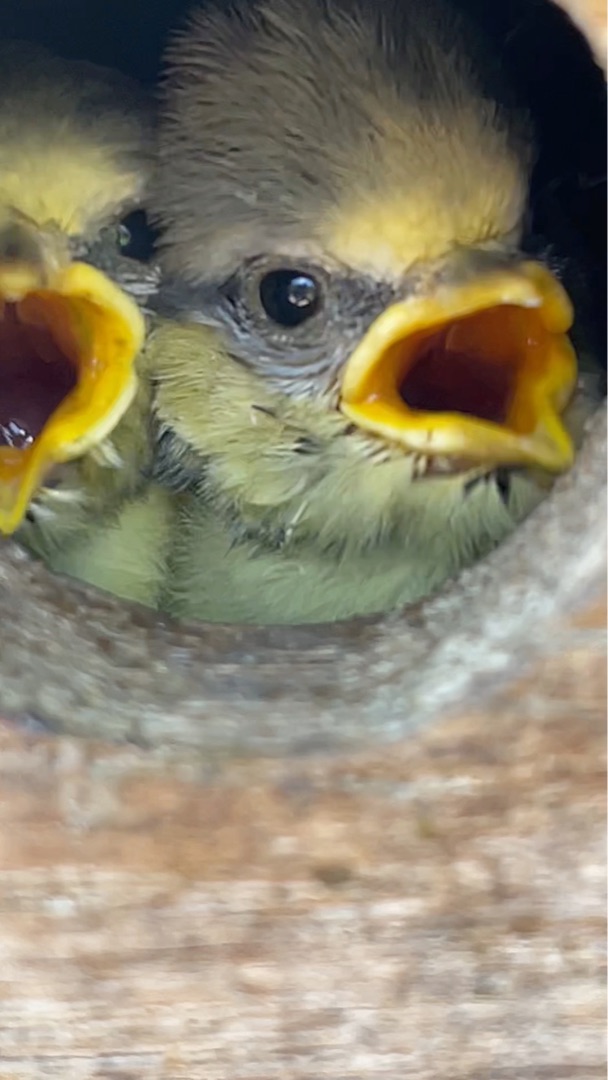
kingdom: Animalia
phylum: Chordata
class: Aves
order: Passeriformes
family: Paridae
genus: Cyanistes
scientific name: Cyanistes caeruleus
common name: Blåmejse
